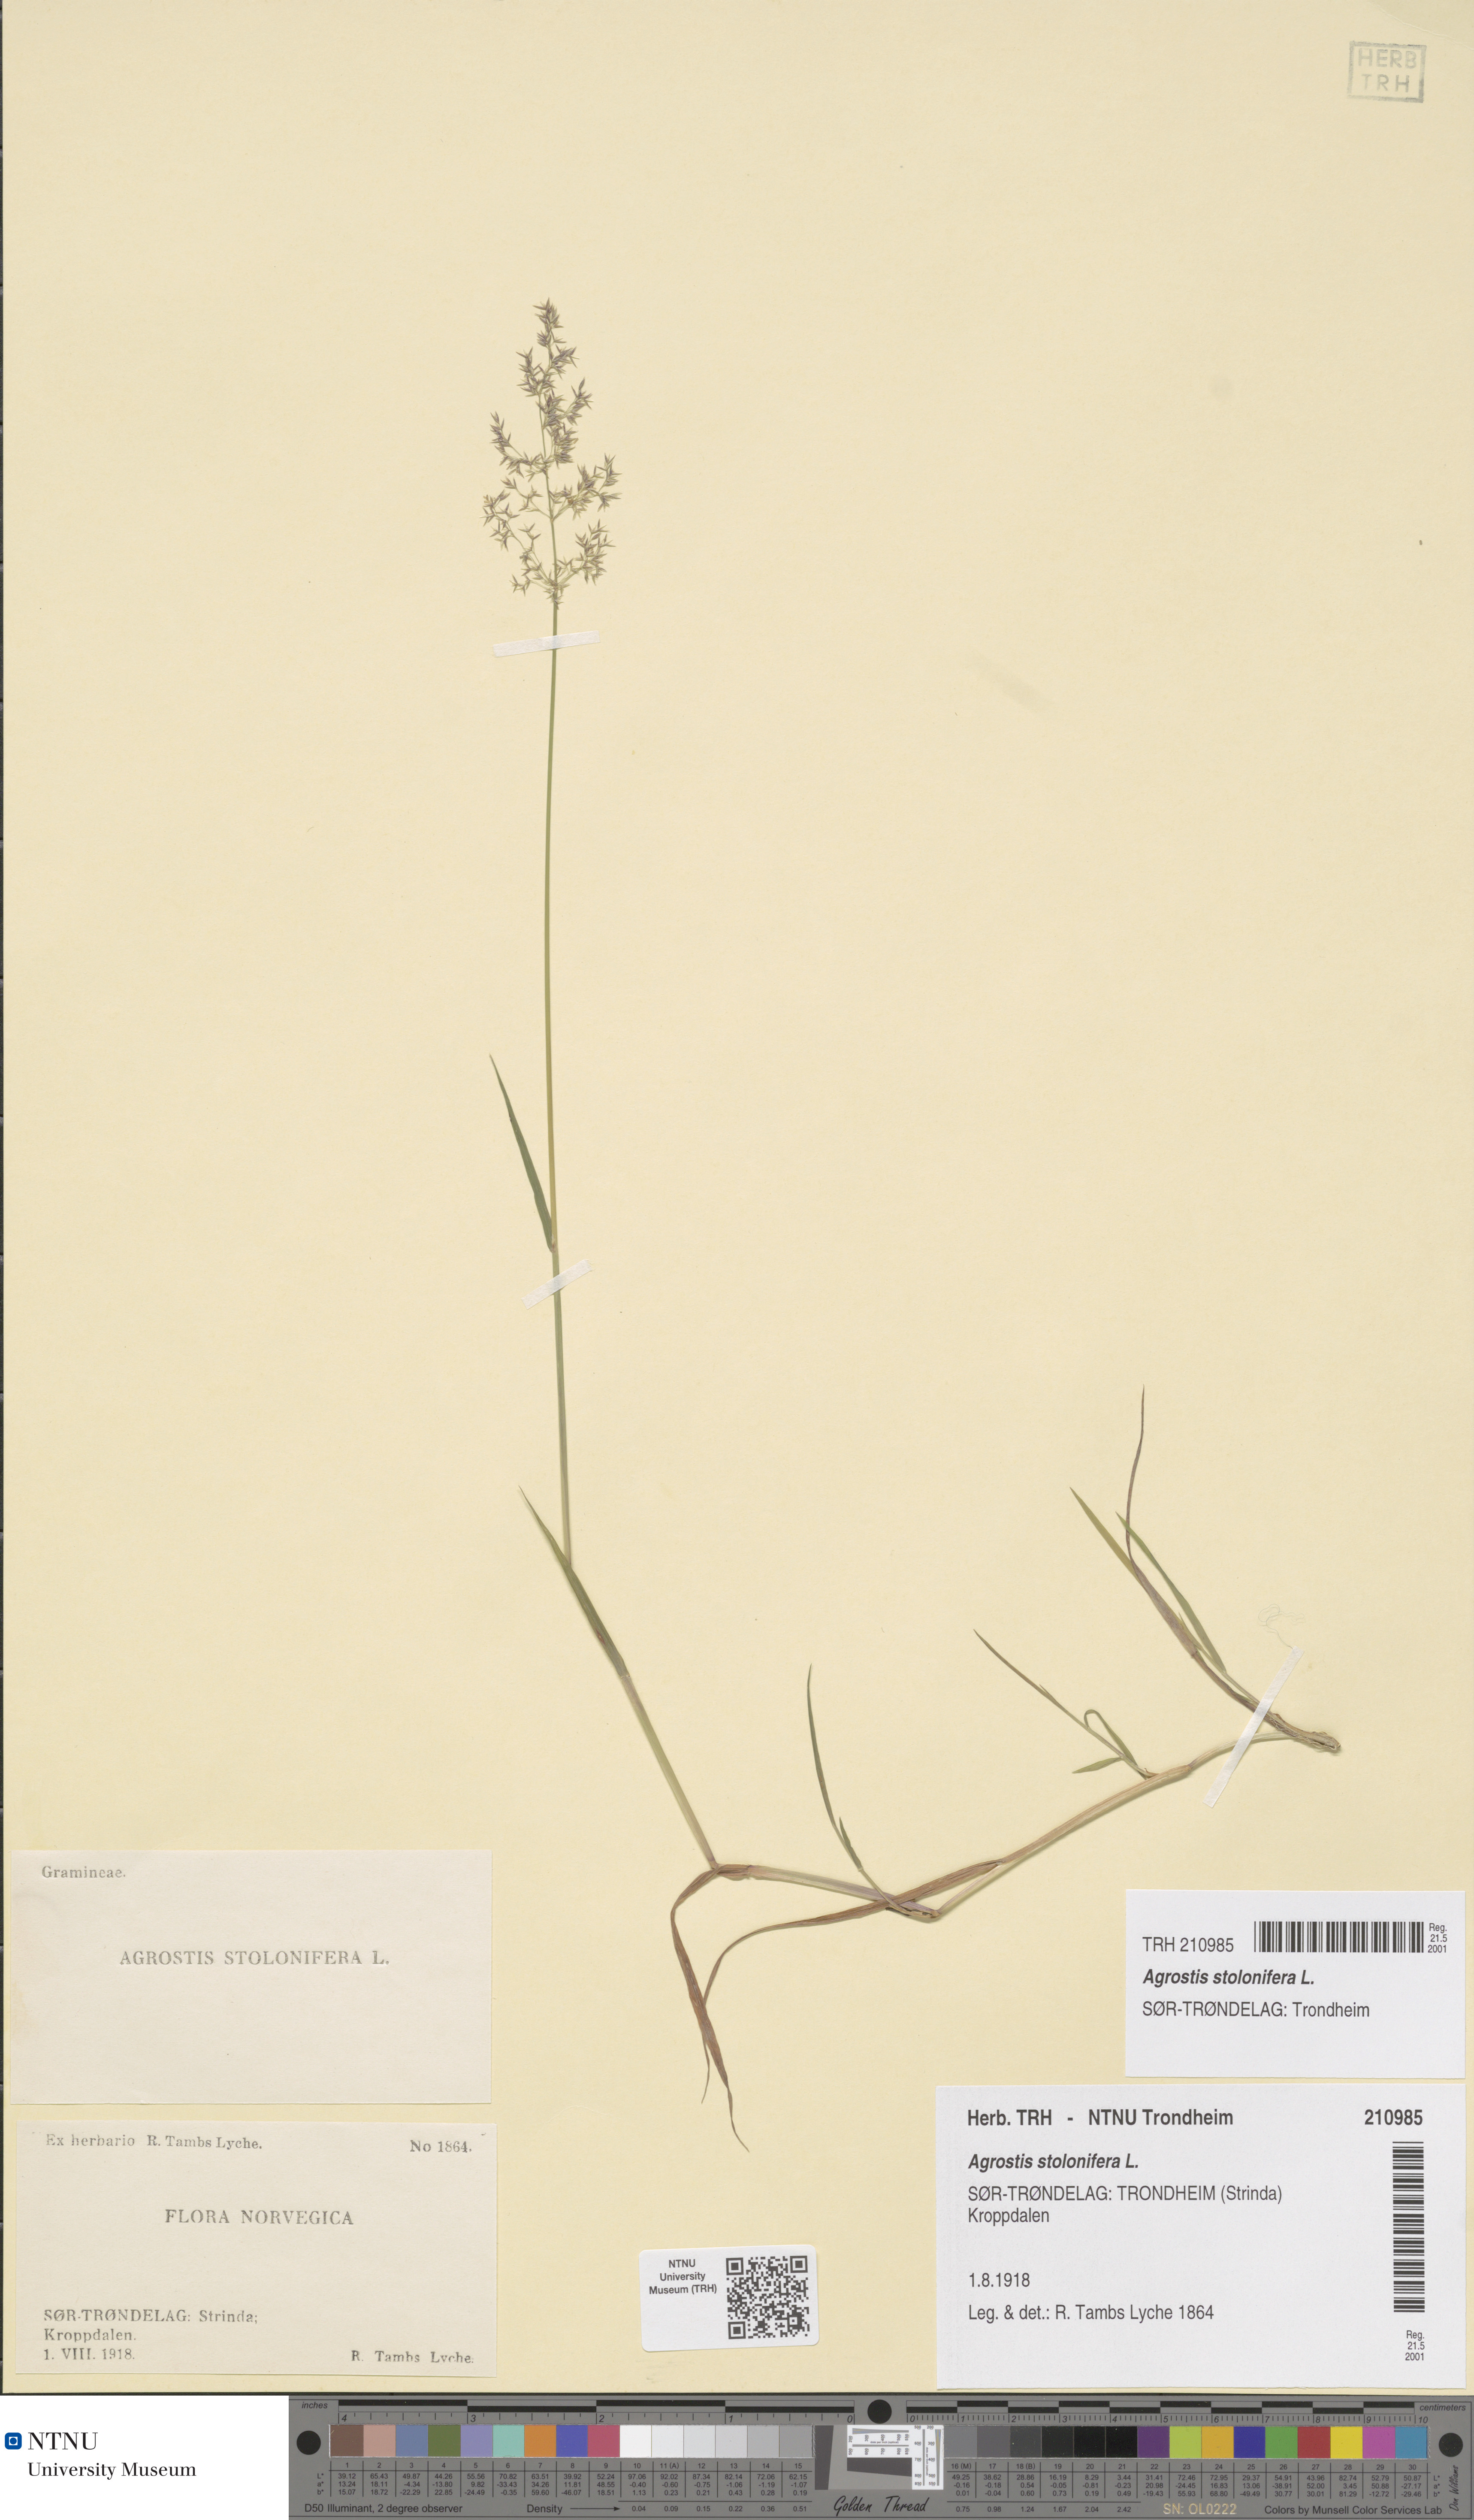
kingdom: Plantae
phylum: Tracheophyta
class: Liliopsida
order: Poales
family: Poaceae
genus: Agrostis
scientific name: Agrostis stolonifera
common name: Creeping bentgrass
